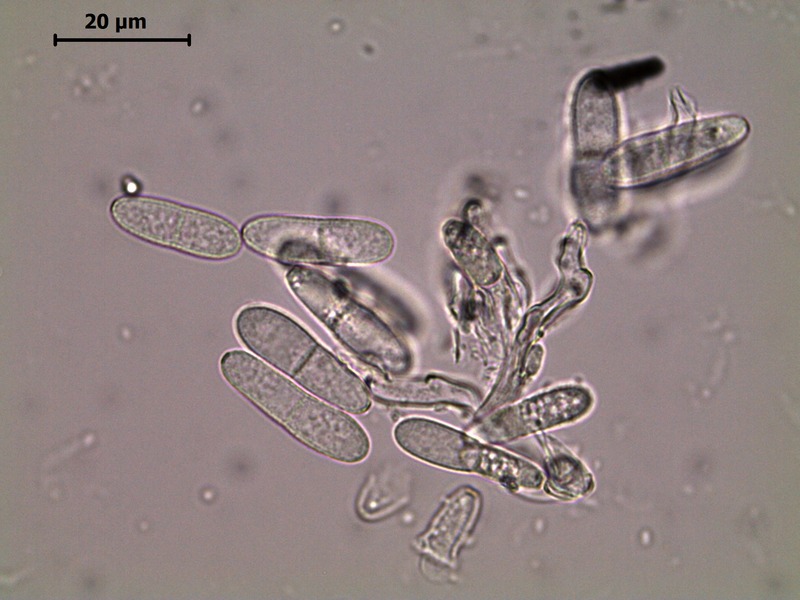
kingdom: Fungi
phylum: Ascomycota
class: Dothideomycetes
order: Mycosphaerellales
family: Mycosphaerellaceae
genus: Ramularia
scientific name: Ramularia oreophila
